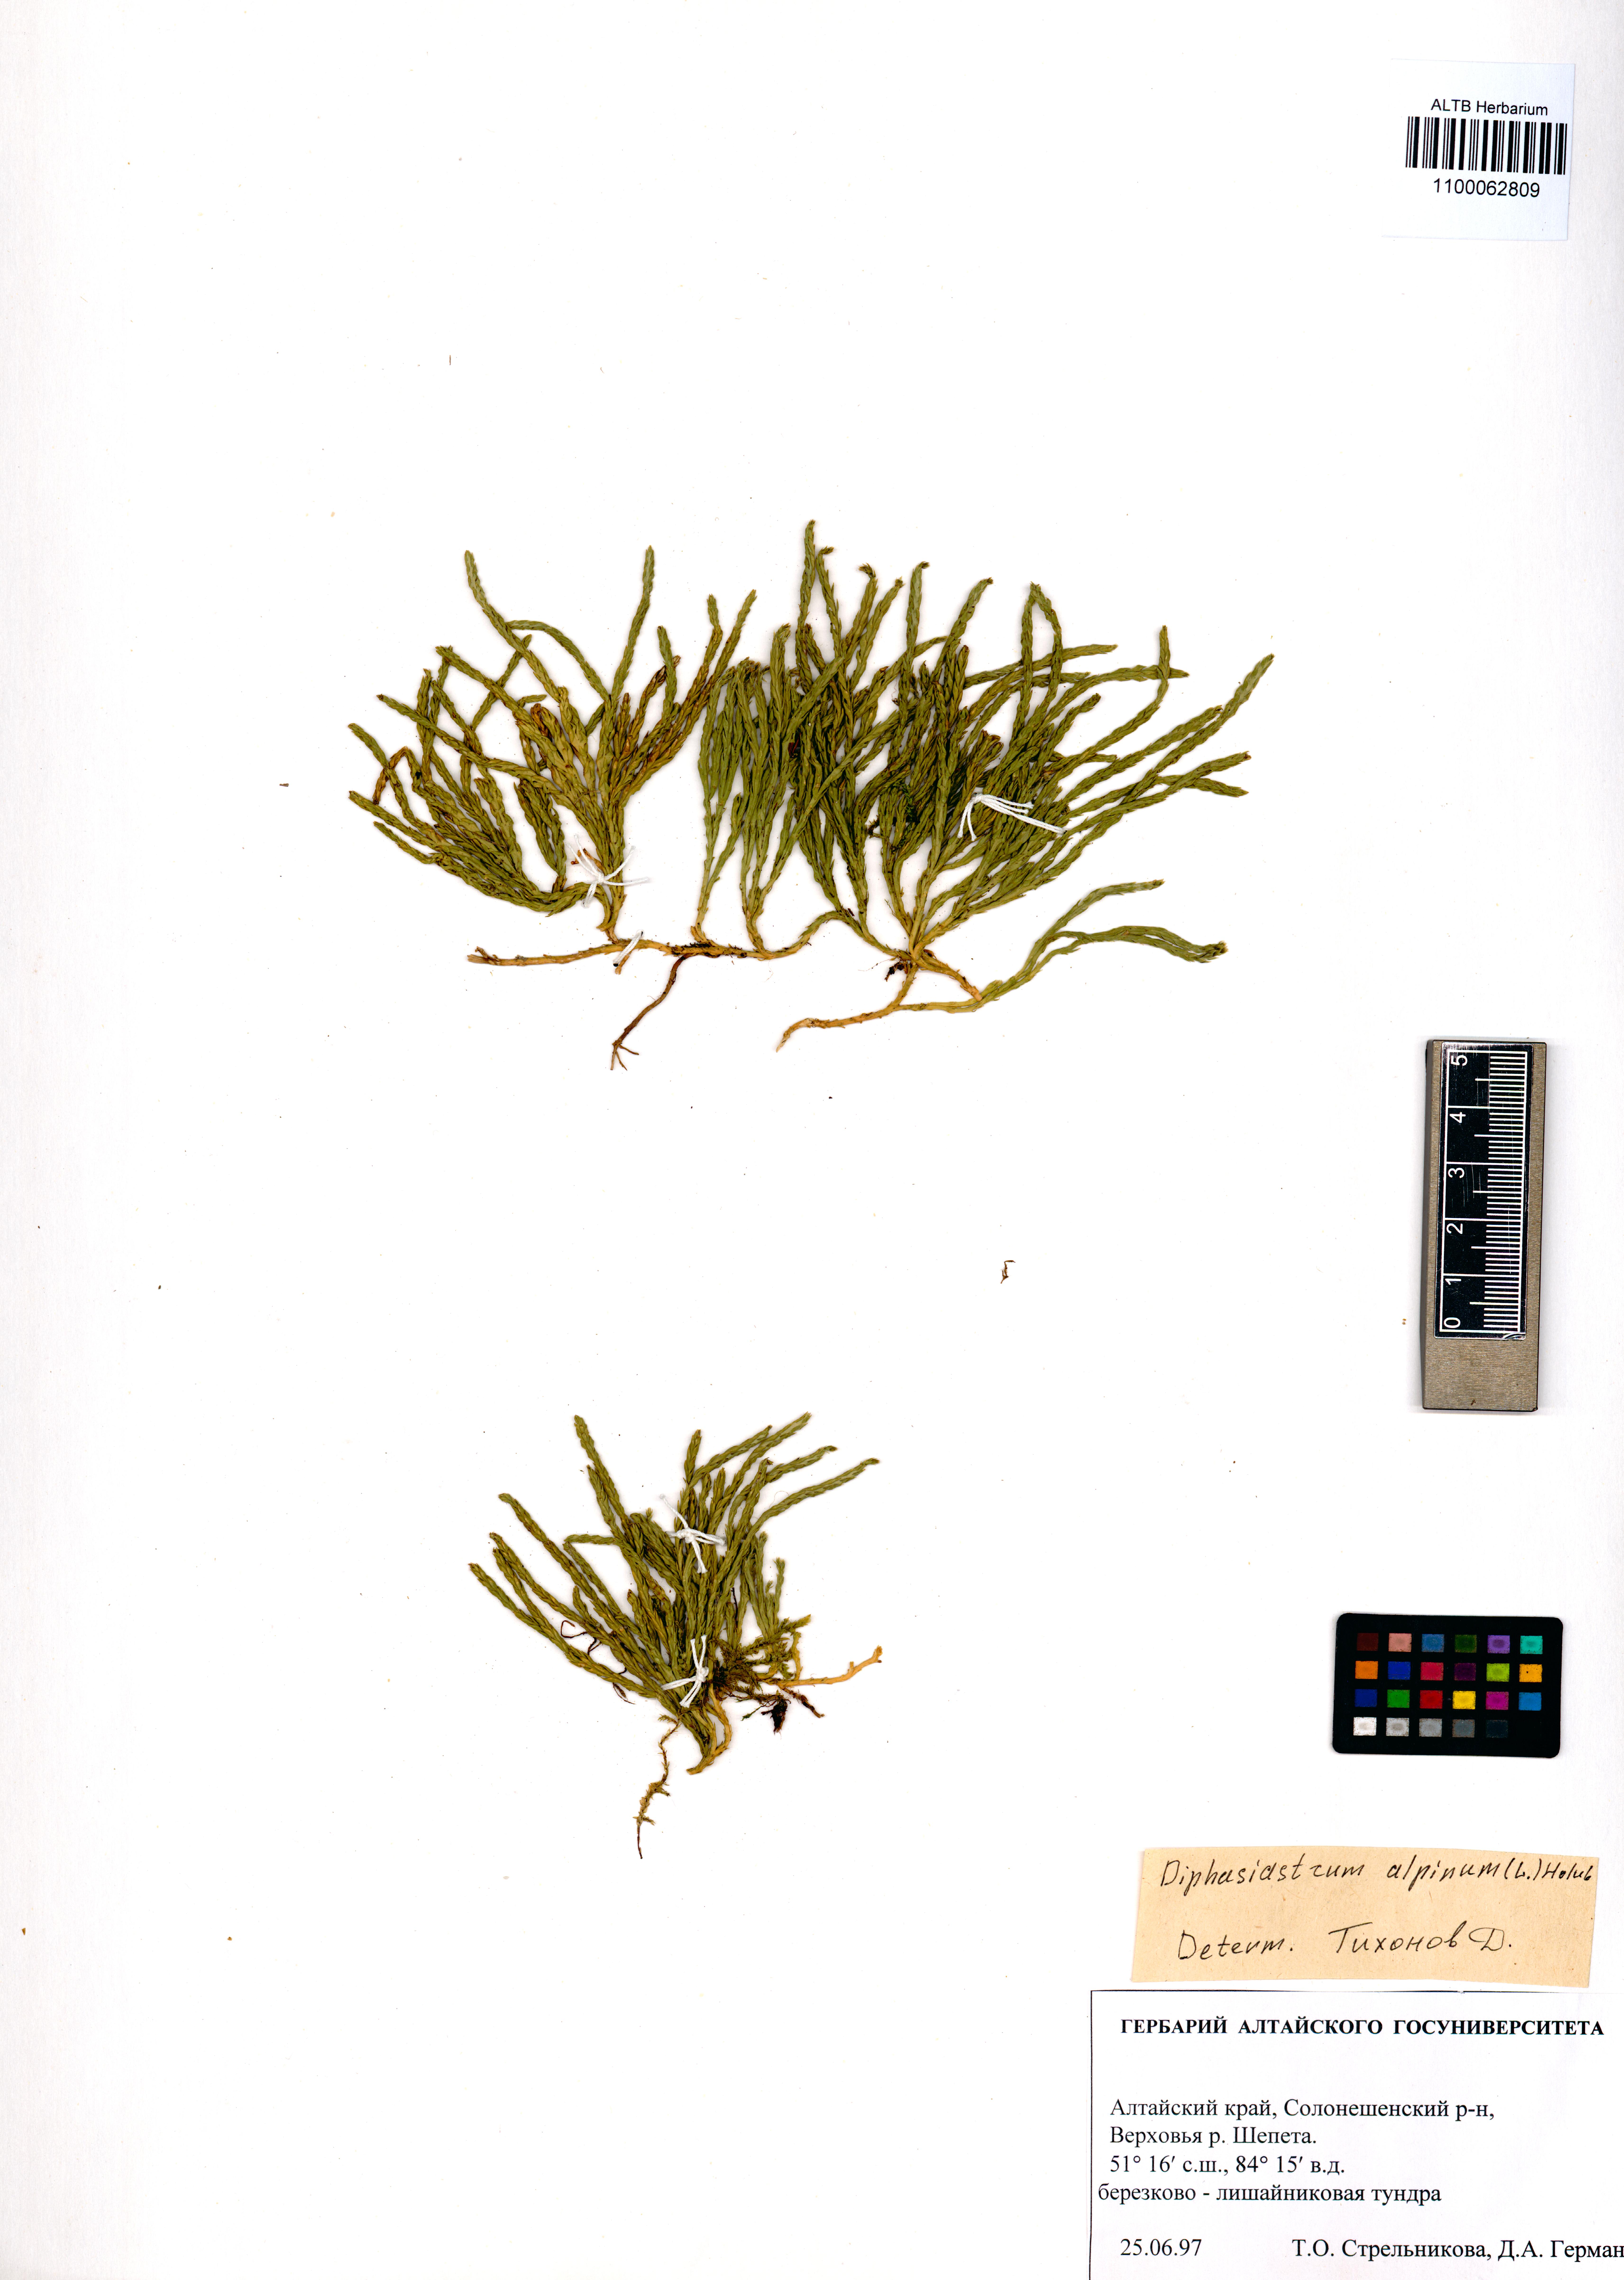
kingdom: Plantae
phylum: Tracheophyta
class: Lycopodiopsida
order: Lycopodiales
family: Lycopodiaceae
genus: Diphasiastrum
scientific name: Diphasiastrum alpinum
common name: Alpine clubmoss
